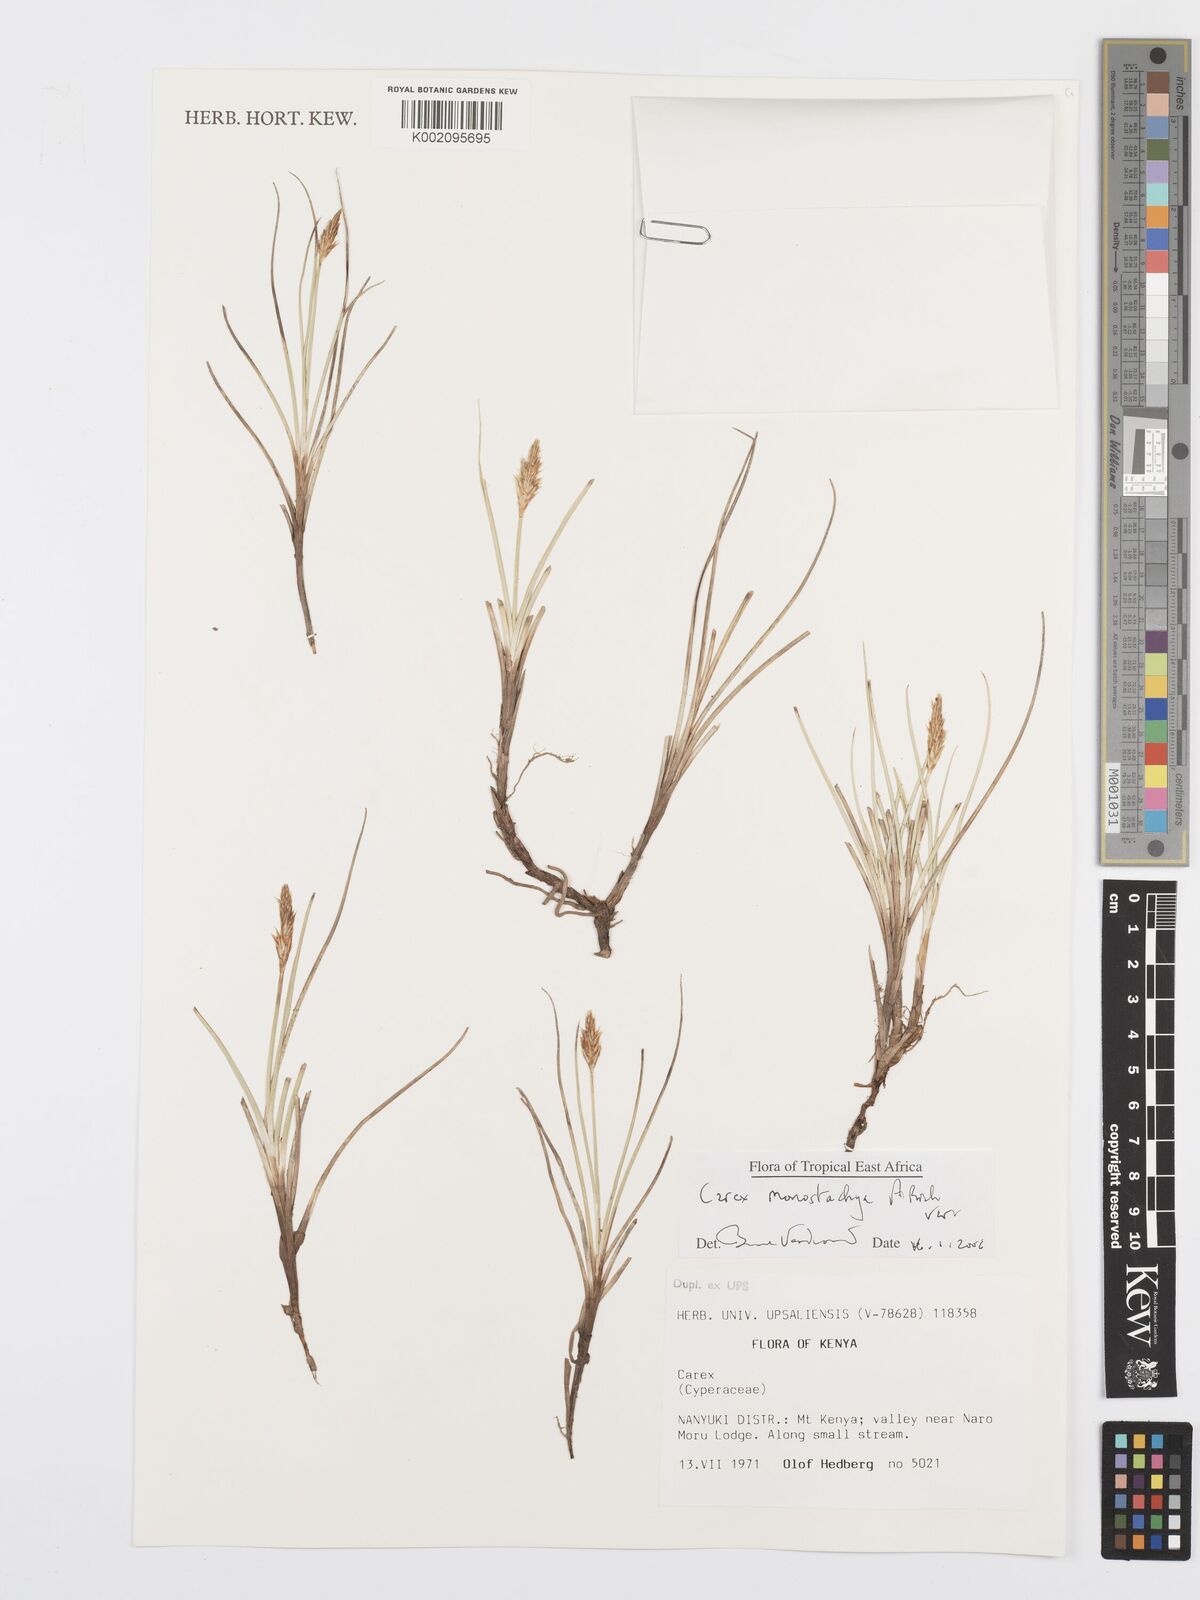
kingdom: Plantae
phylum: Tracheophyta
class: Liliopsida
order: Poales
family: Cyperaceae
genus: Carex
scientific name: Carex monostachya
